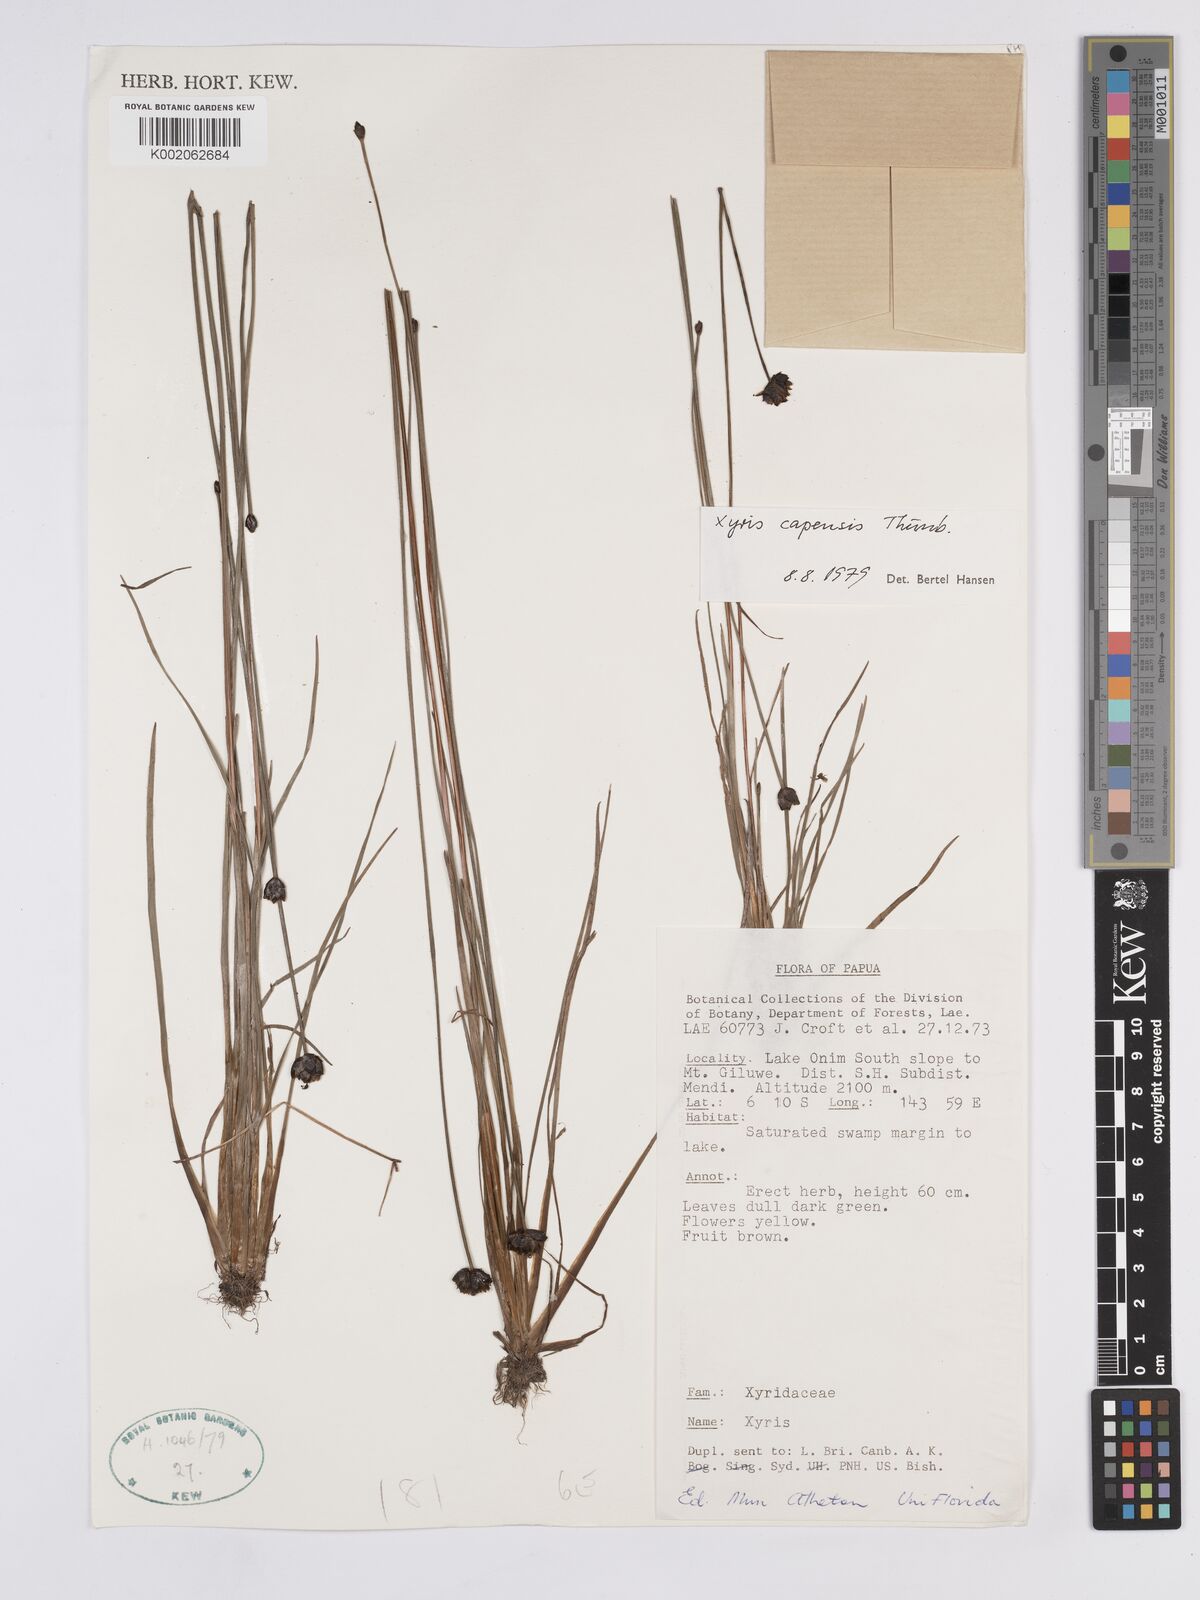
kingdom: Plantae
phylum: Tracheophyta
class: Liliopsida
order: Poales
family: Xyridaceae
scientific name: Xyridaceae
